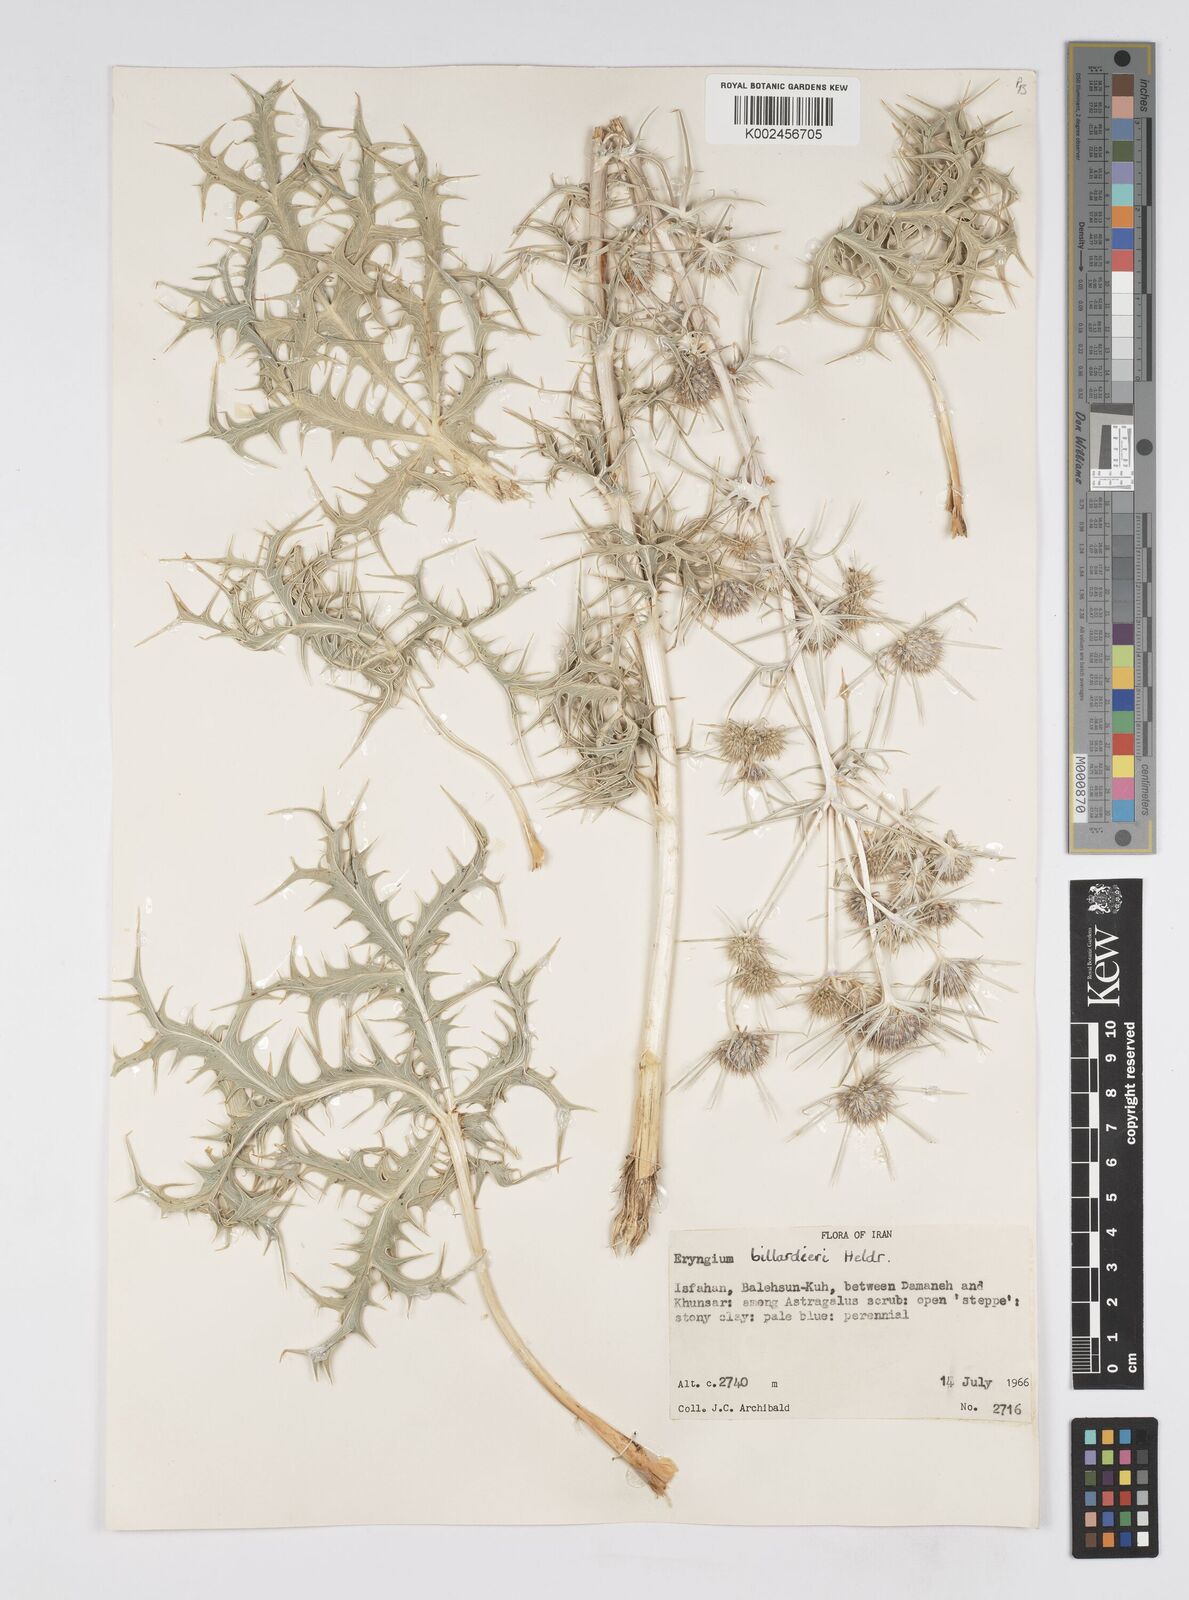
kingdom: Plantae
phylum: Tracheophyta
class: Magnoliopsida
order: Apiales
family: Apiaceae
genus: Eryngium
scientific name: Eryngium heldreichii
